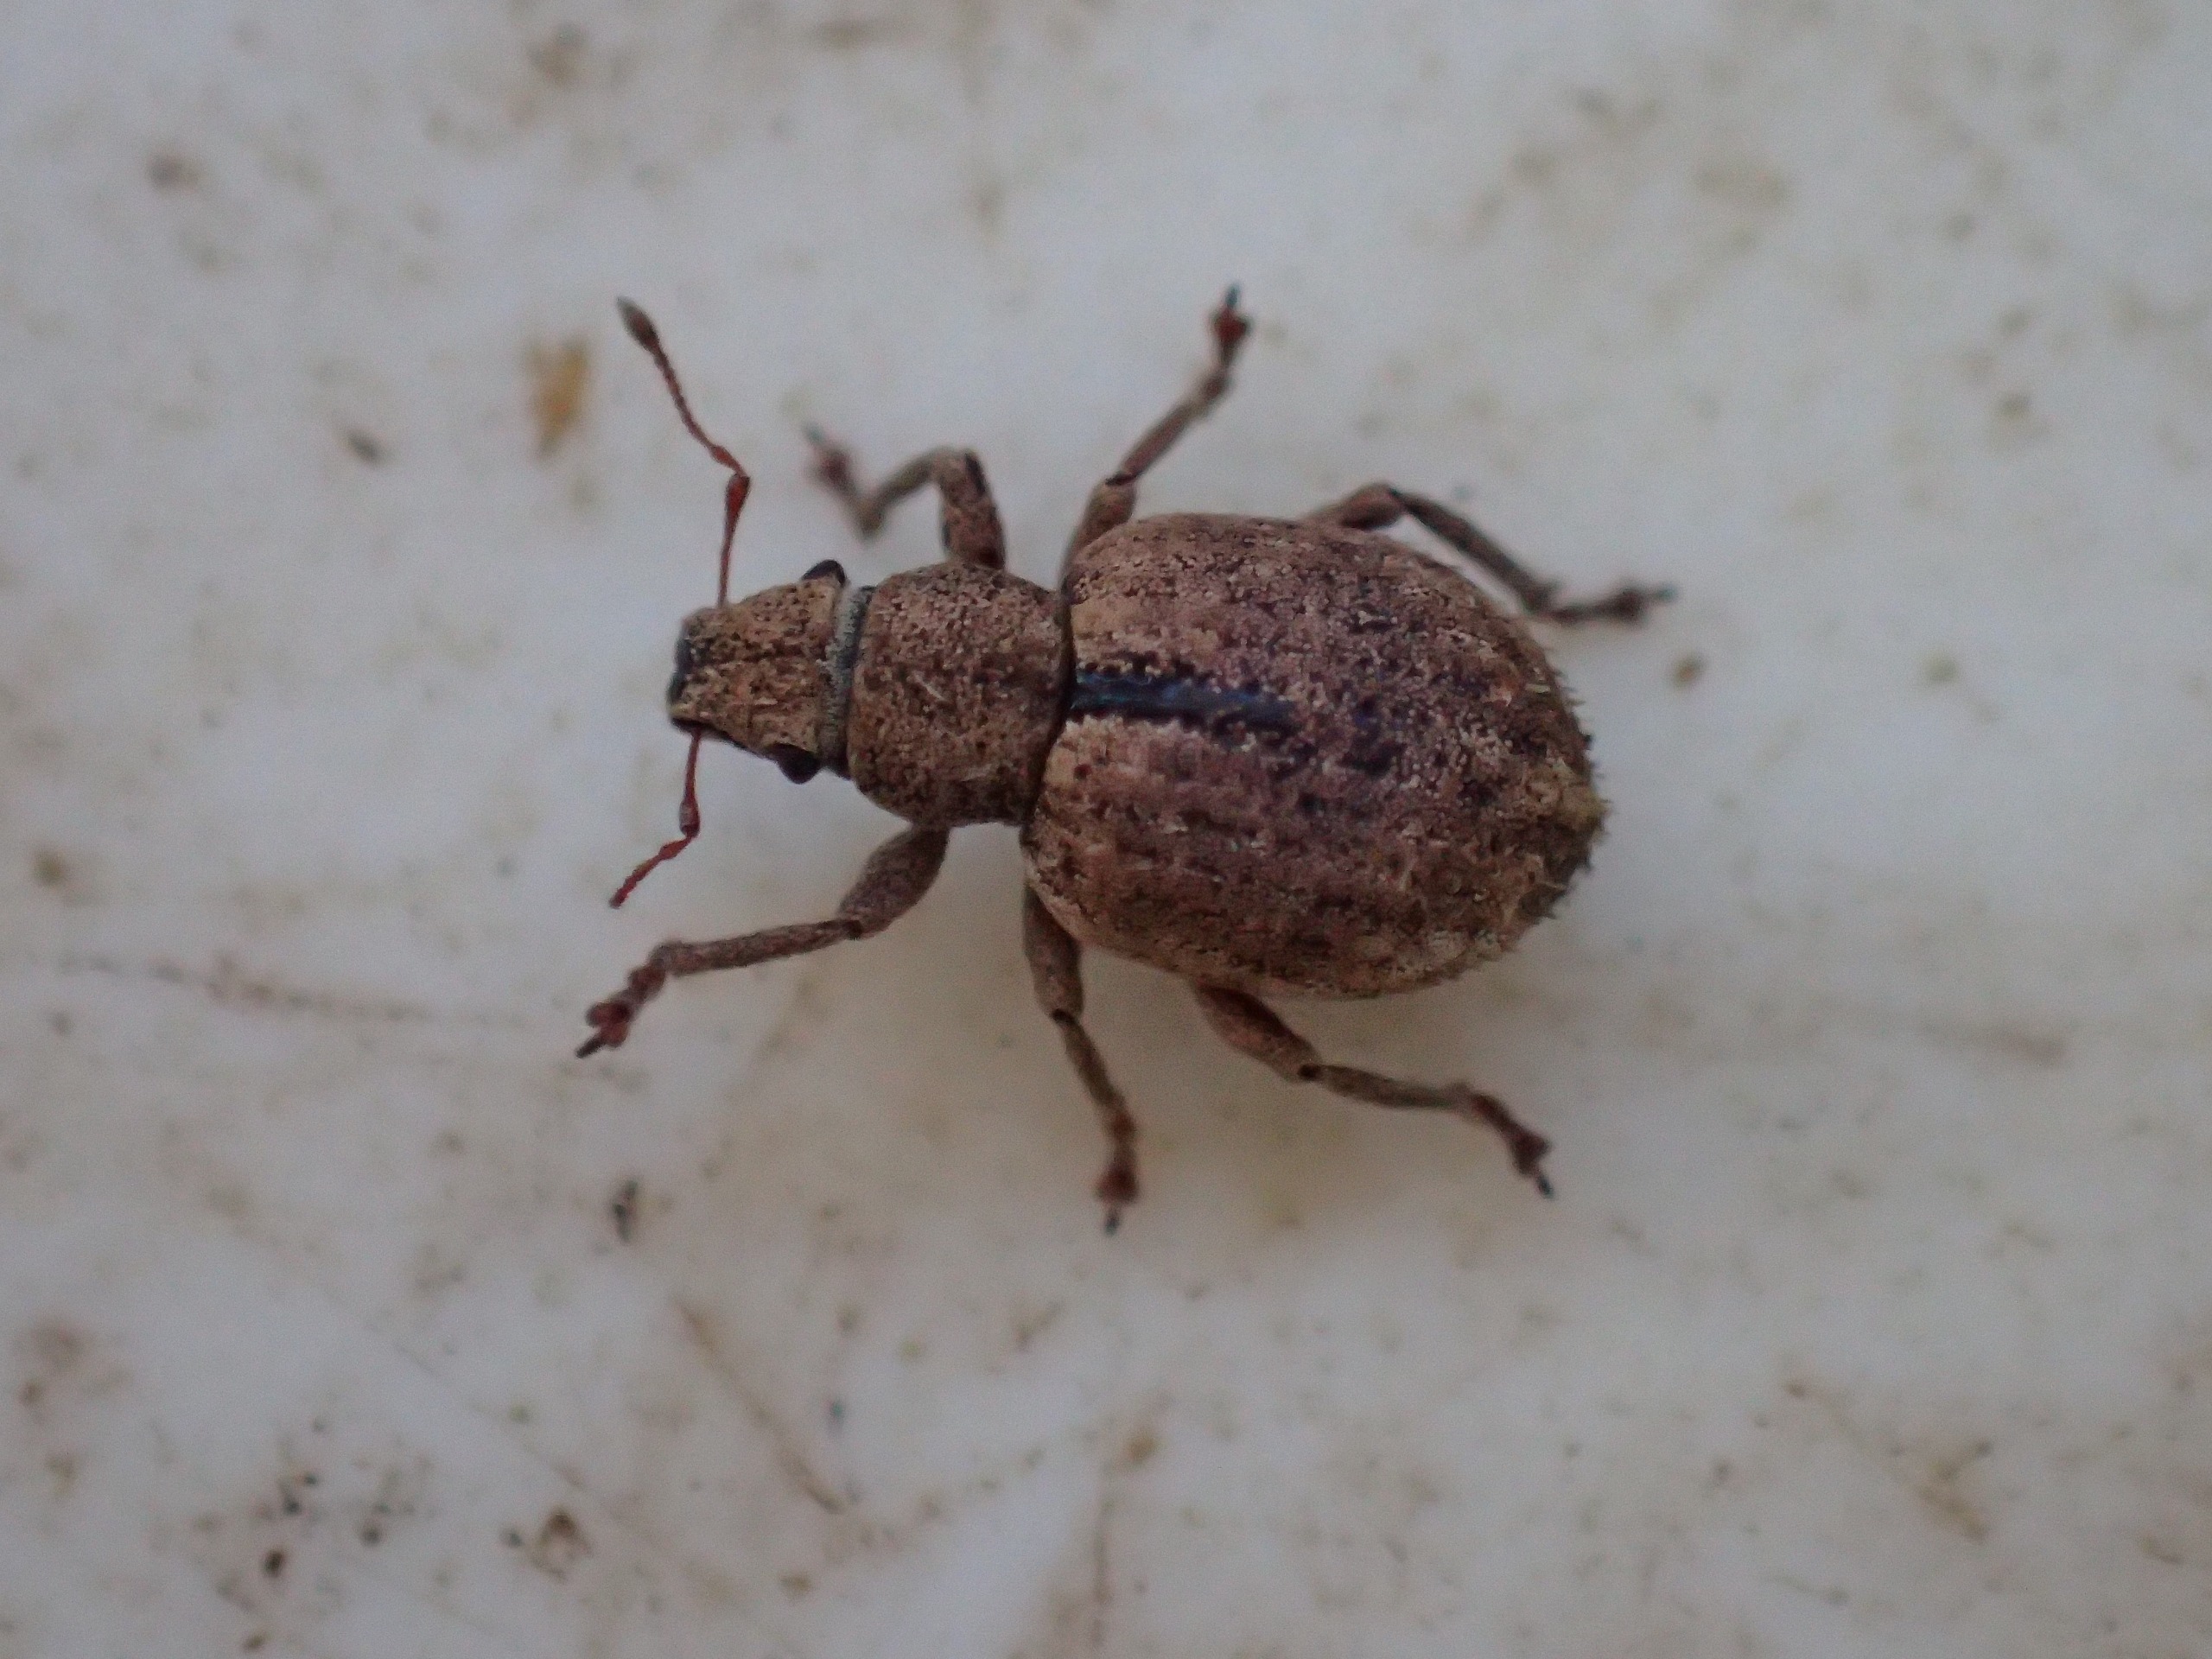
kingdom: Animalia
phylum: Arthropoda
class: Insecta
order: Coleoptera
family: Curculionidae
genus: Strophosoma
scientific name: Strophosoma melanogrammum
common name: Stribet gråsnude
